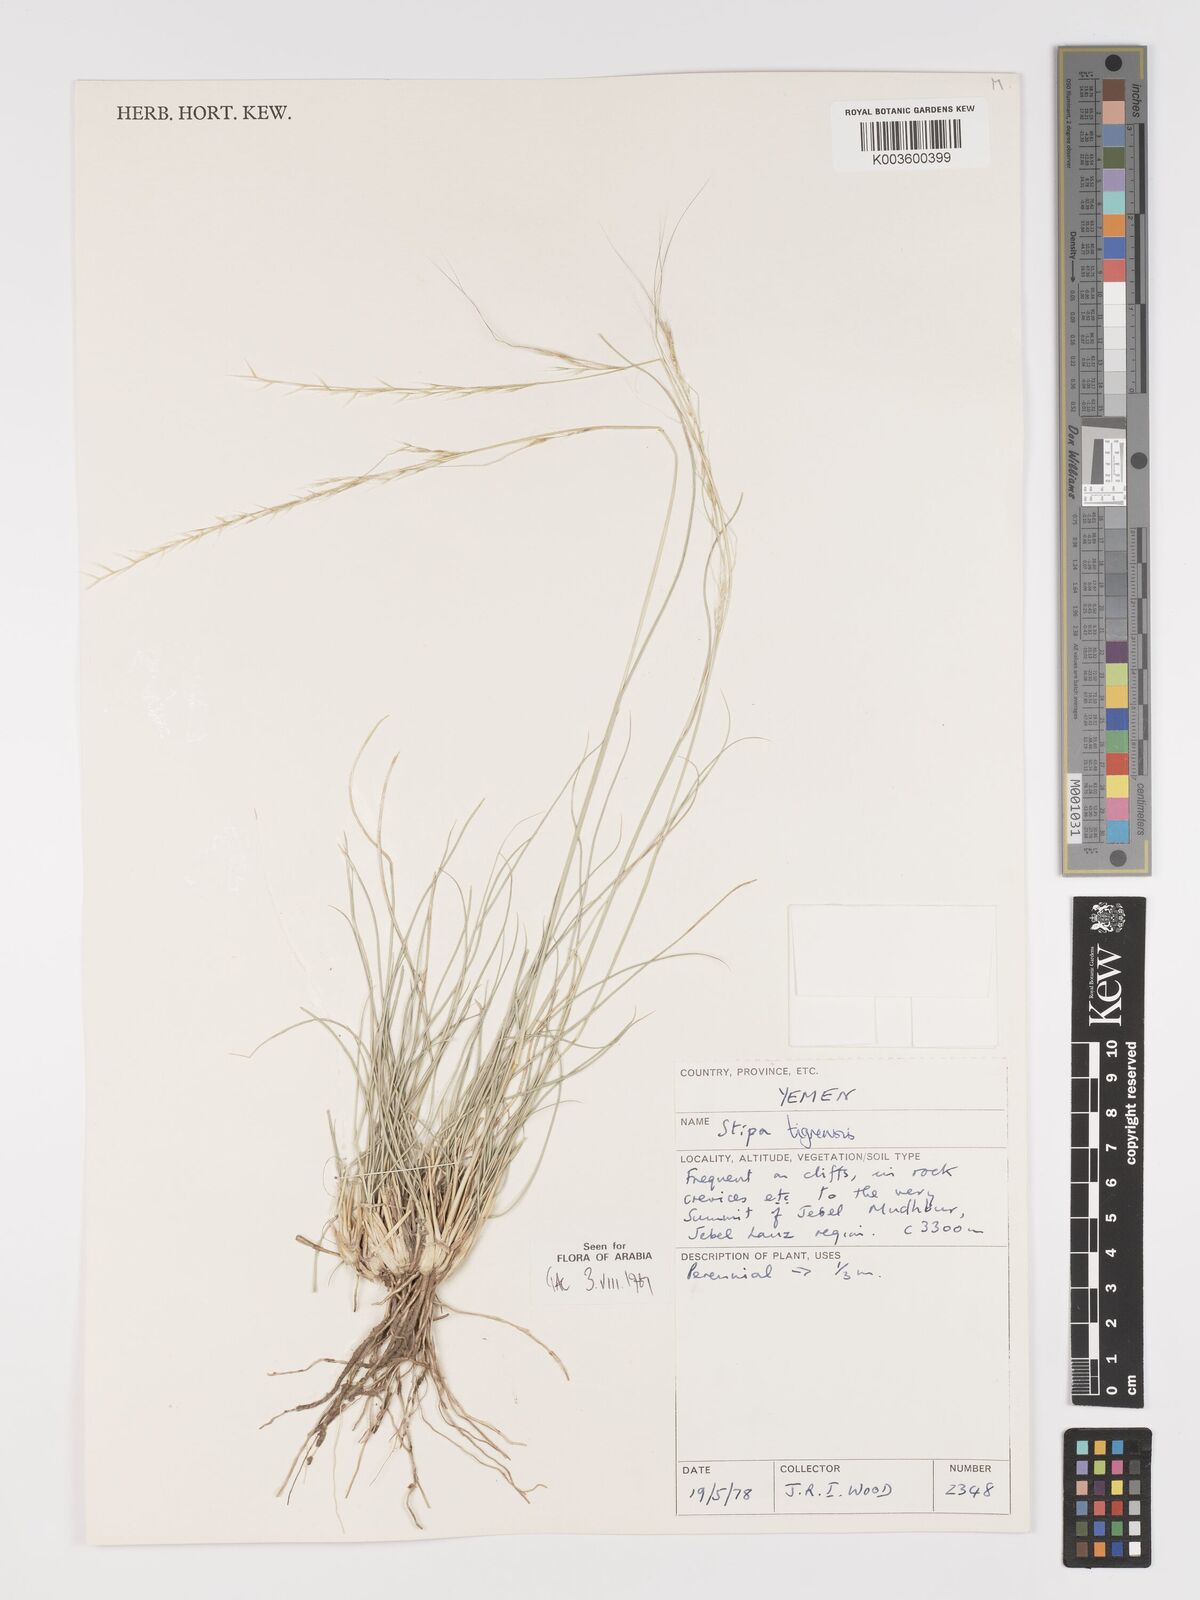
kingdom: Plantae
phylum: Tracheophyta
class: Liliopsida
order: Poales
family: Poaceae
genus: Stipa
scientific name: Stipa tigrensis
